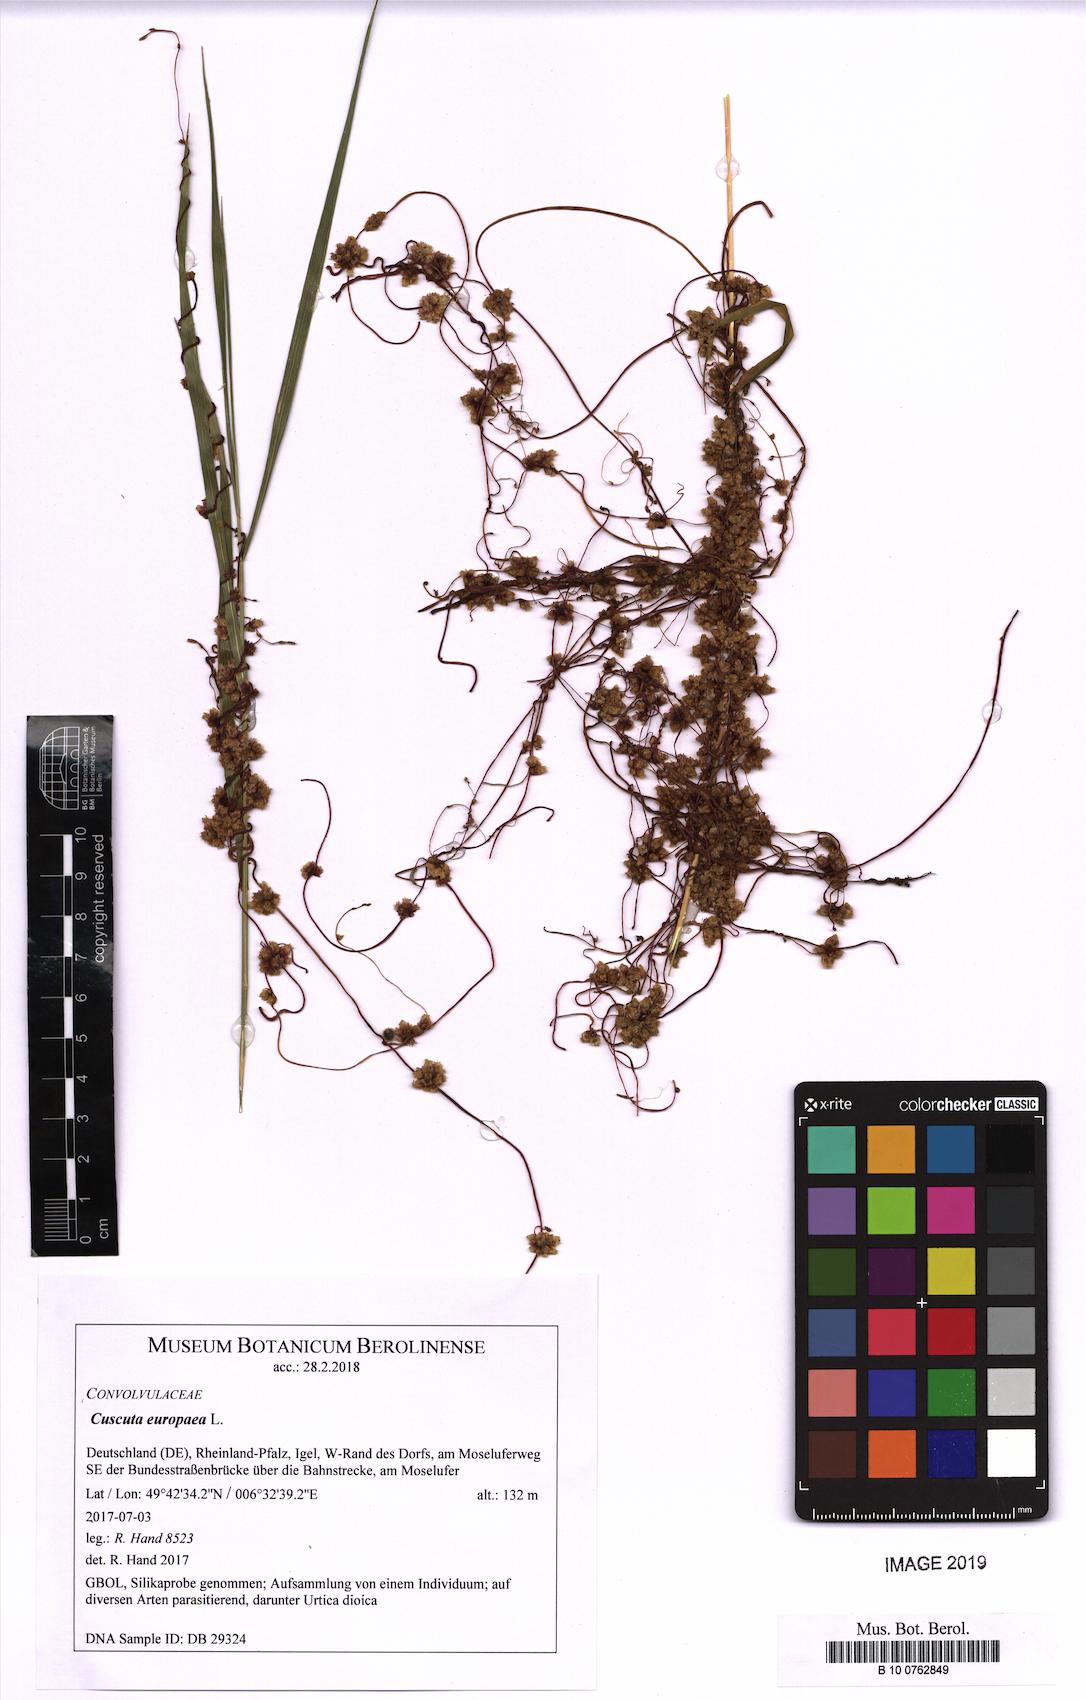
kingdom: Plantae
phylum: Tracheophyta
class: Magnoliopsida
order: Solanales
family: Convolvulaceae
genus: Cuscuta
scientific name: Cuscuta europaea
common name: Greater dodder
